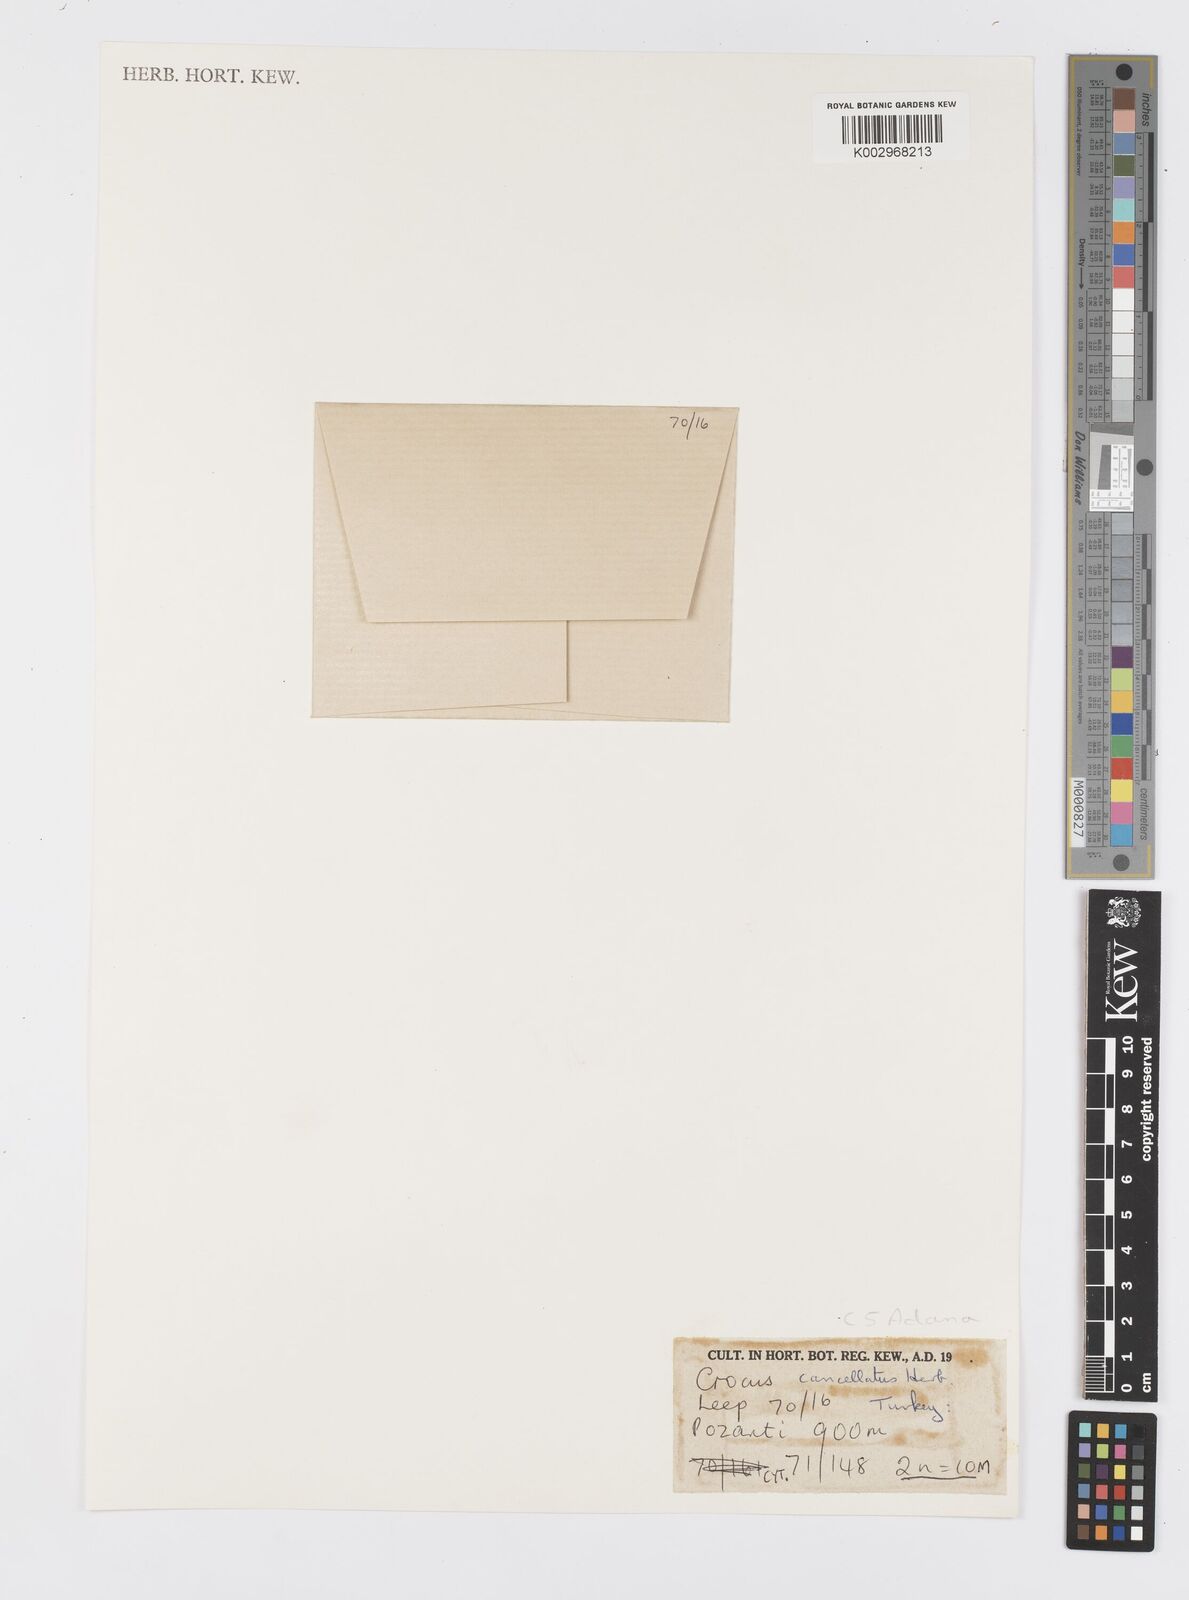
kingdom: Plantae
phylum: Tracheophyta
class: Liliopsida
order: Asparagales
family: Iridaceae
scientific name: Iridaceae
